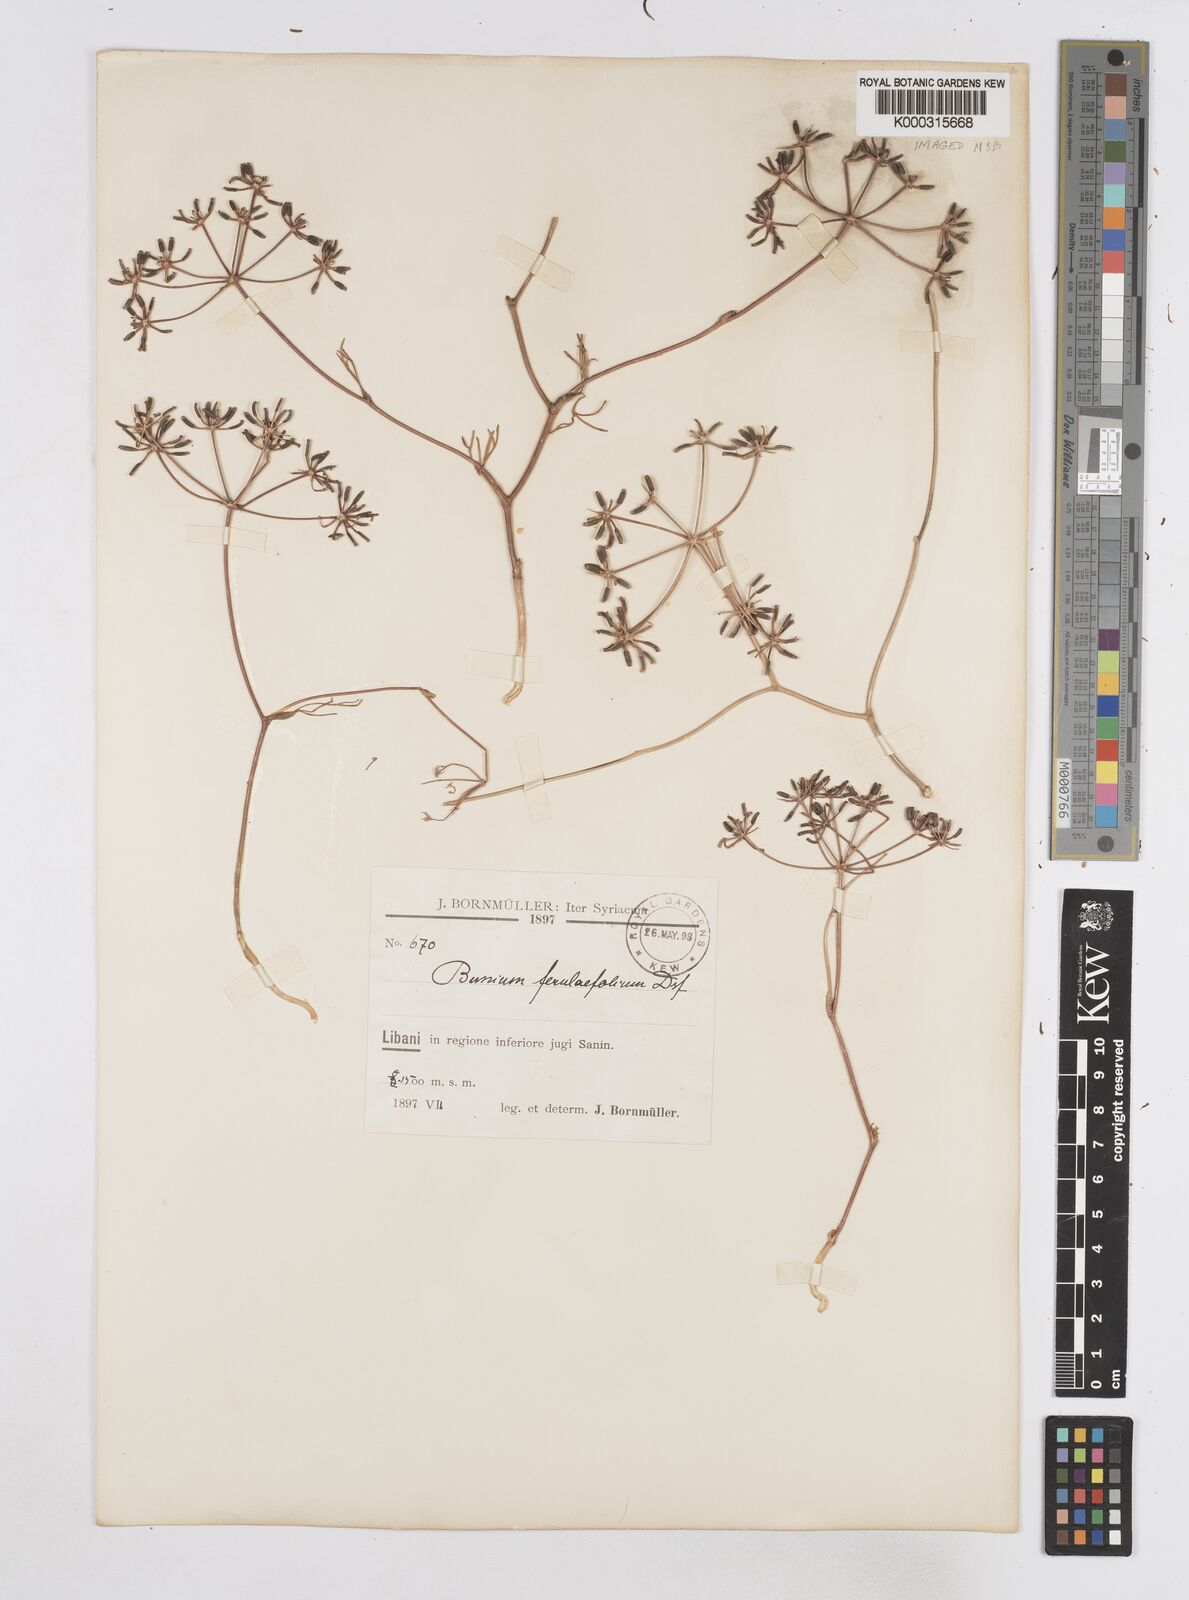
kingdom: Plantae
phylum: Tracheophyta
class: Magnoliopsida
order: Apiales
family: Apiaceae
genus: Bunium
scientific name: Bunium ferulaceum
